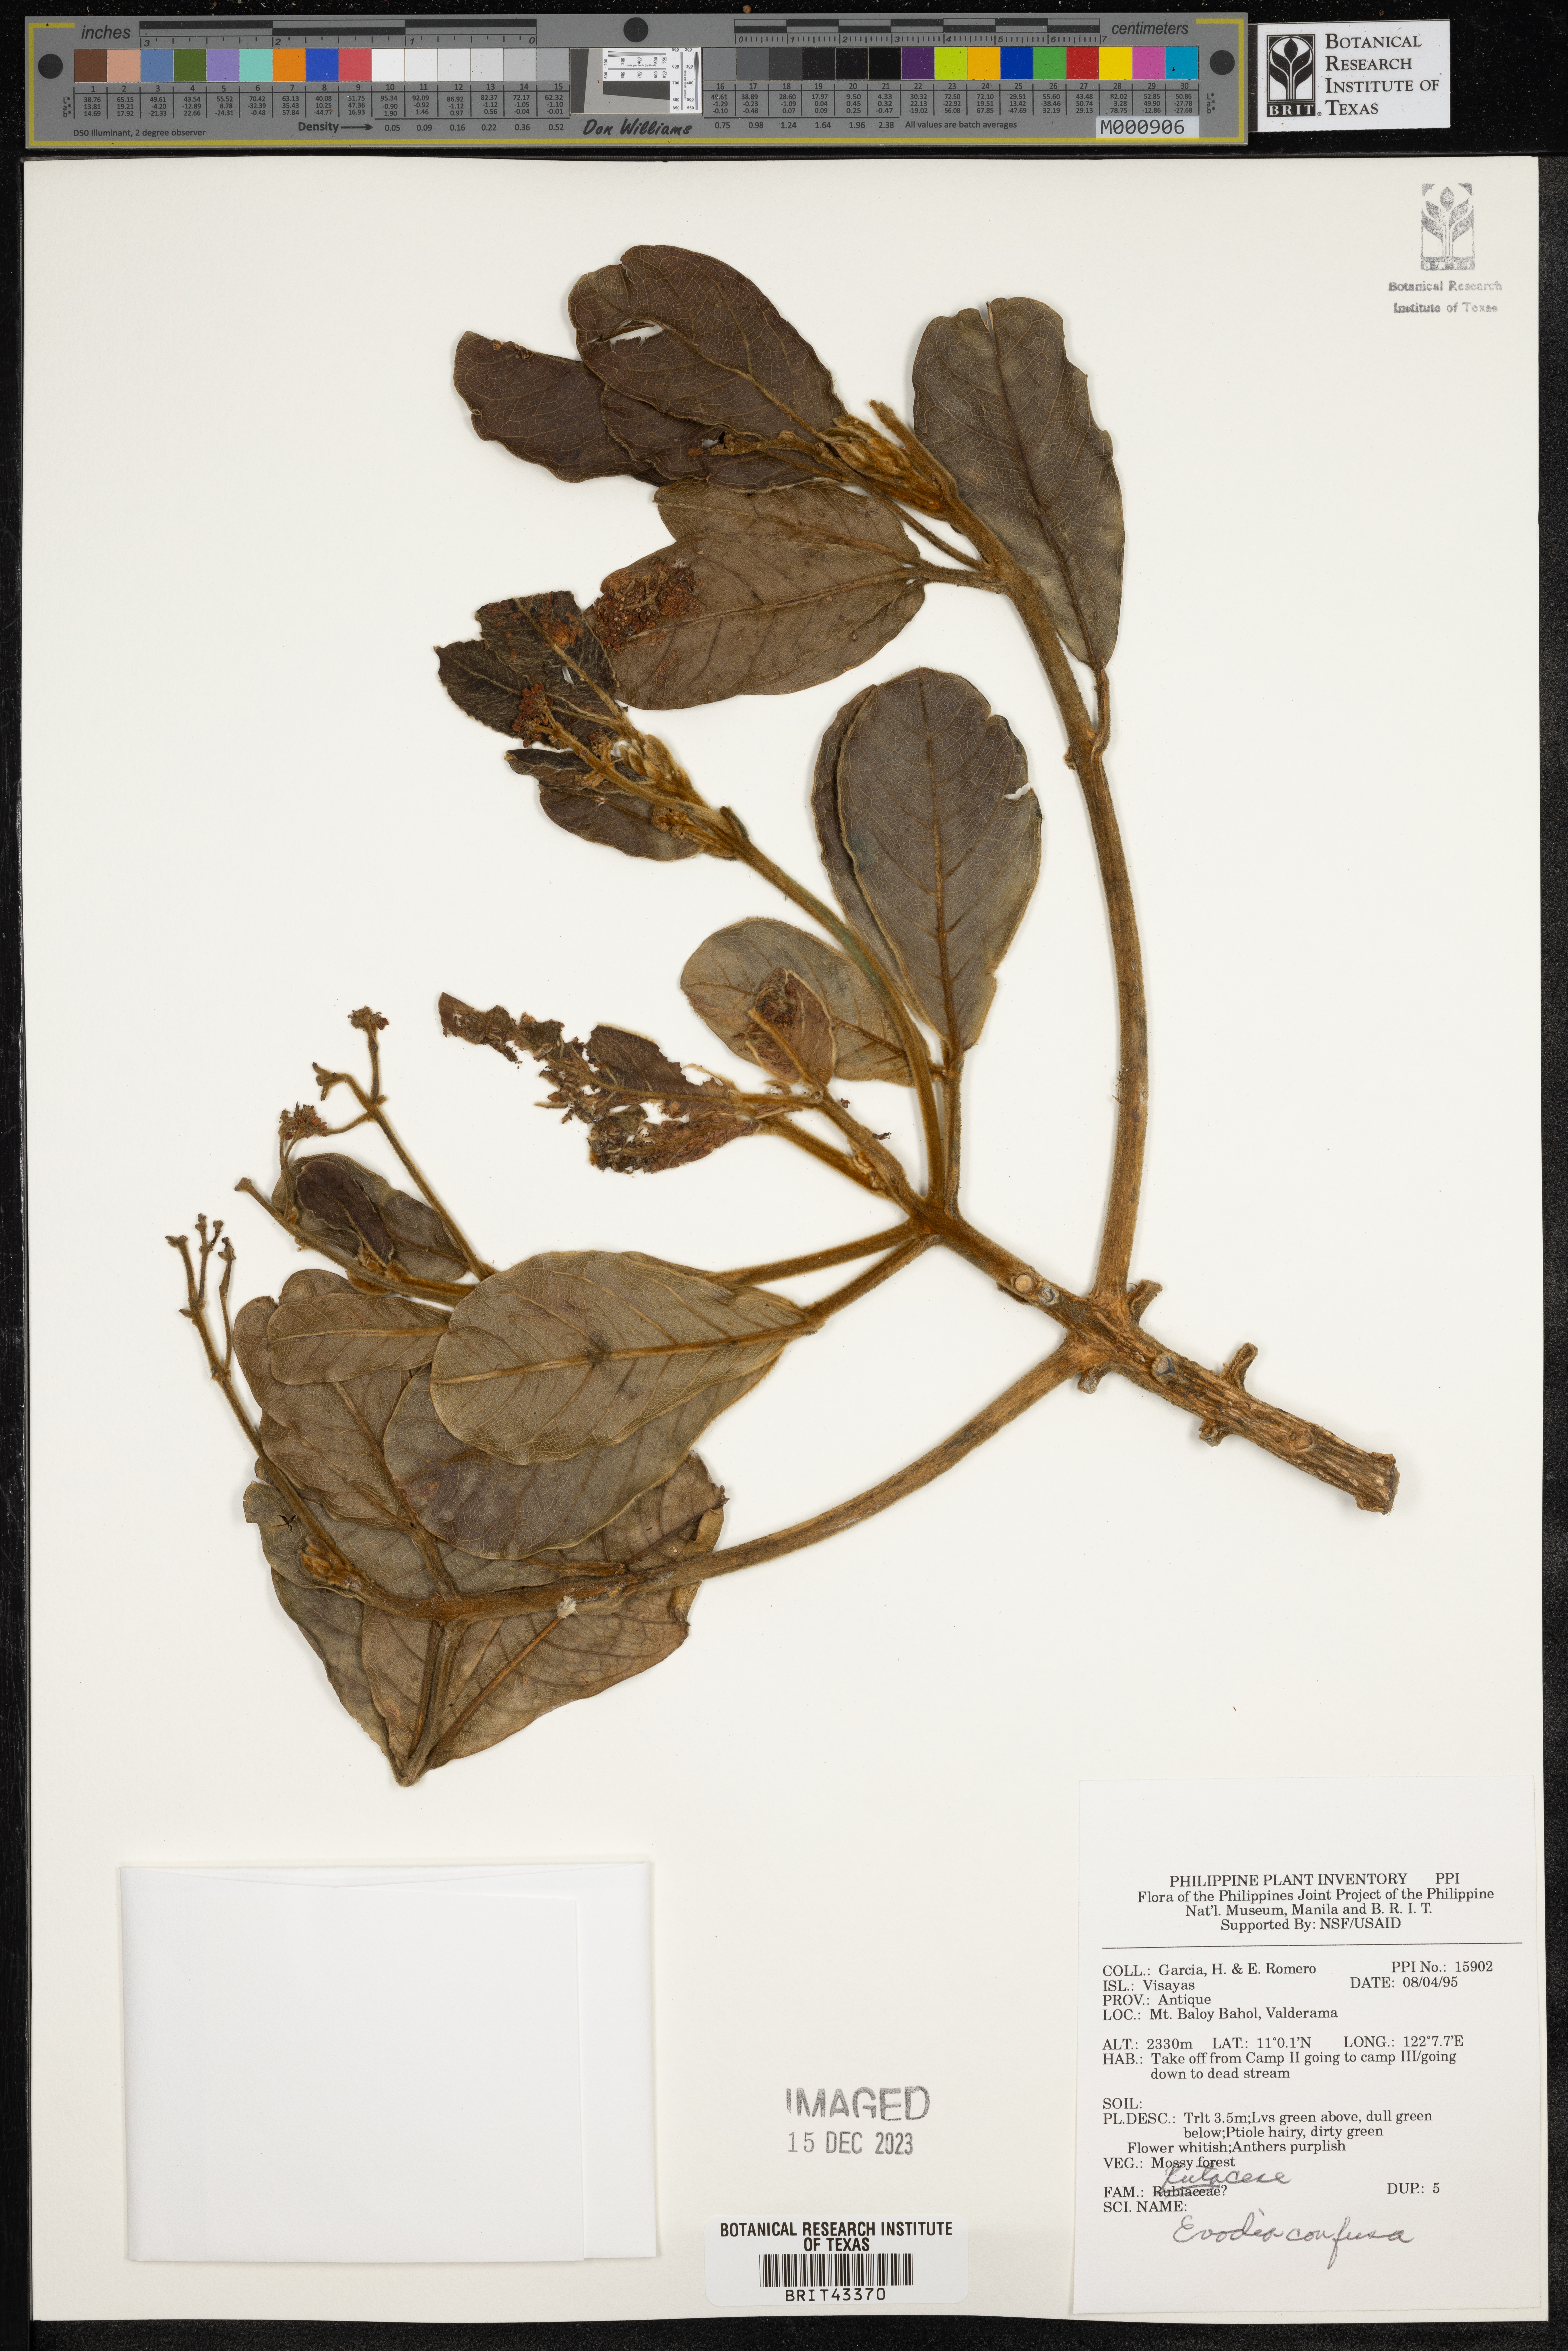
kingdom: Plantae
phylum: Tracheophyta
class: Magnoliopsida
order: Sapindales
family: Rutaceae
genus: Melicope
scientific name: Melicope frutescens
